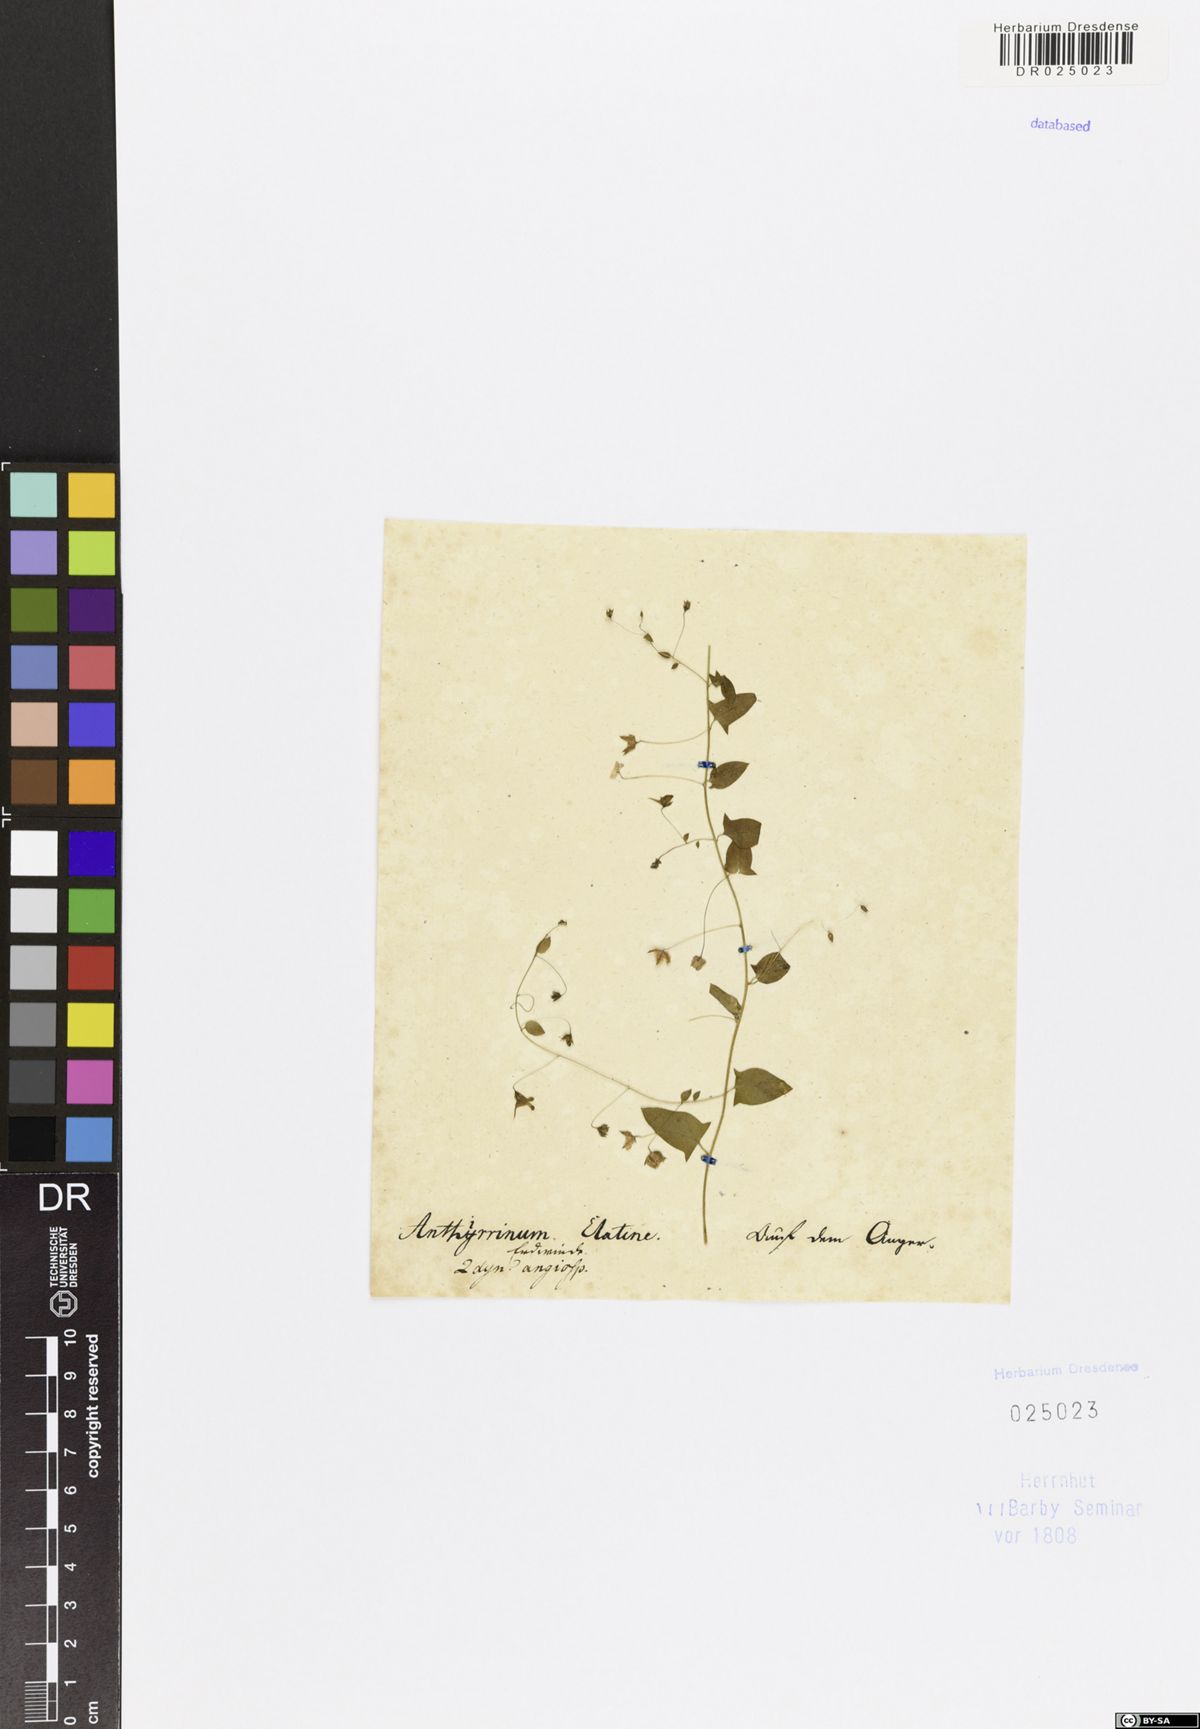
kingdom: Plantae
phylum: Tracheophyta
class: Magnoliopsida
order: Lamiales
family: Plantaginaceae
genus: Kickxia
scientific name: Kickxia elatine
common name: Sharp-leaved fluellen
